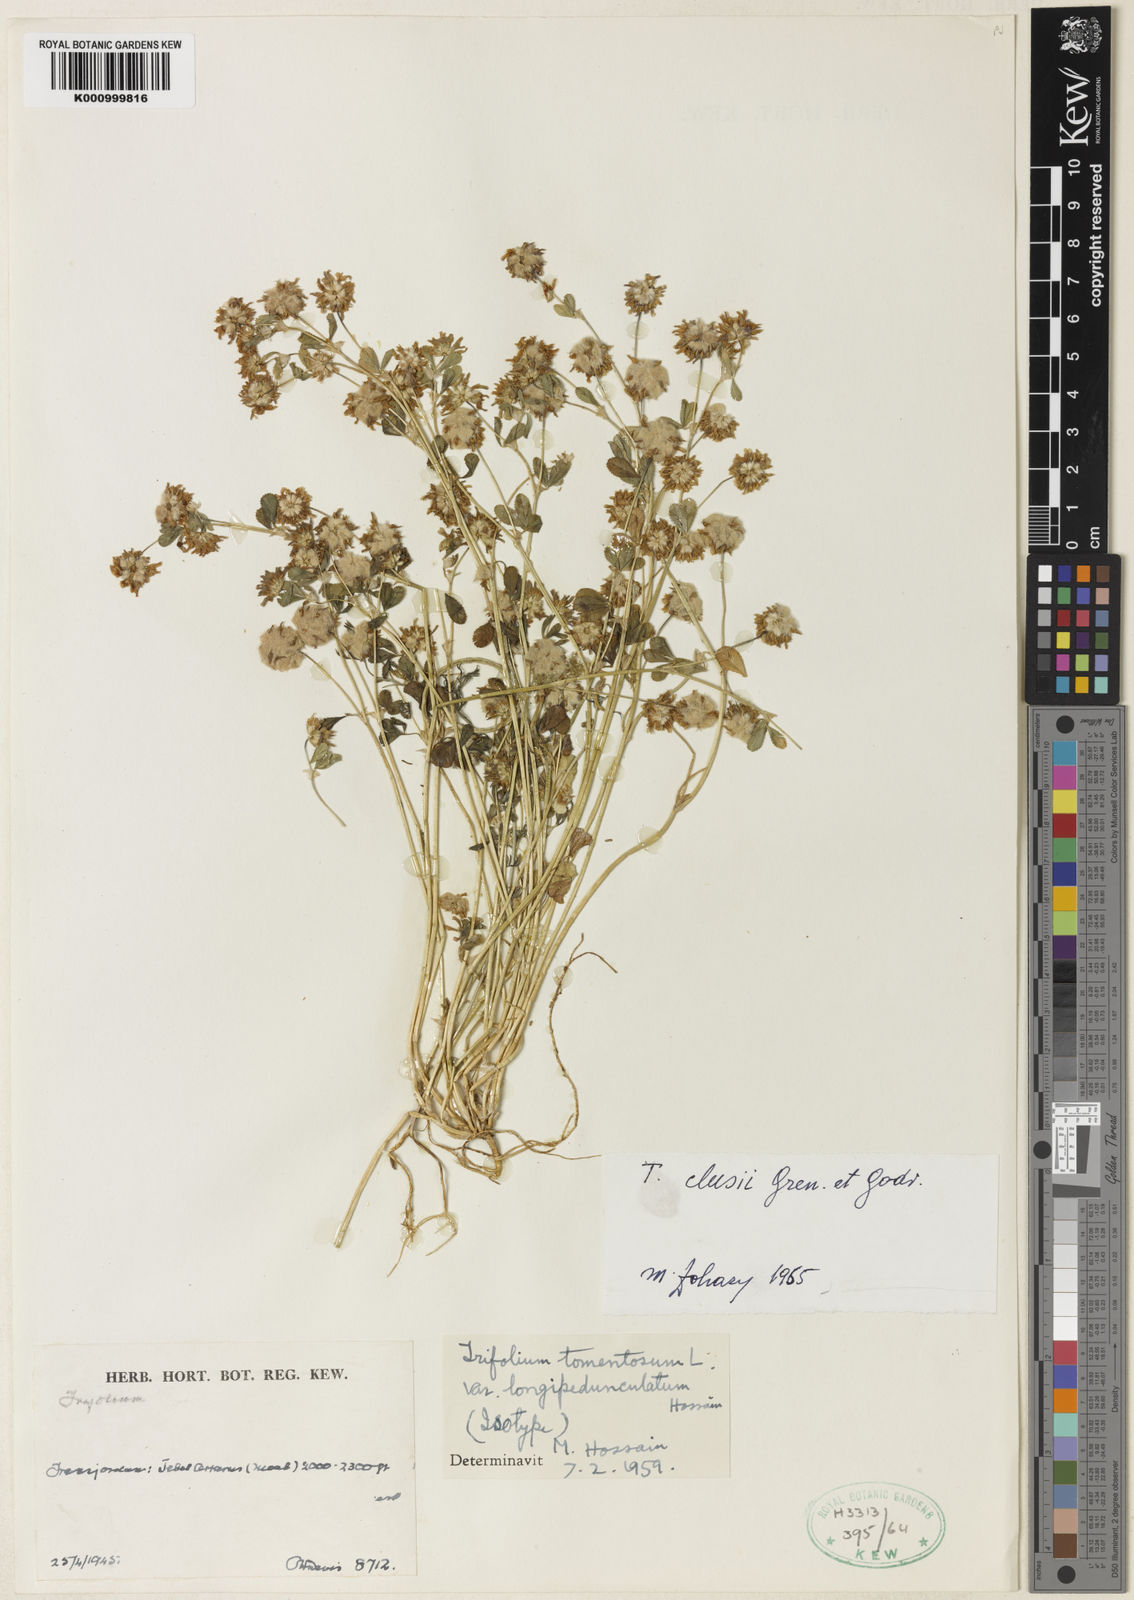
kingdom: Plantae
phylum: Tracheophyta
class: Magnoliopsida
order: Fabales
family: Fabaceae
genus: Trifolium
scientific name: Trifolium tomentosum
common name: Woolly clover
